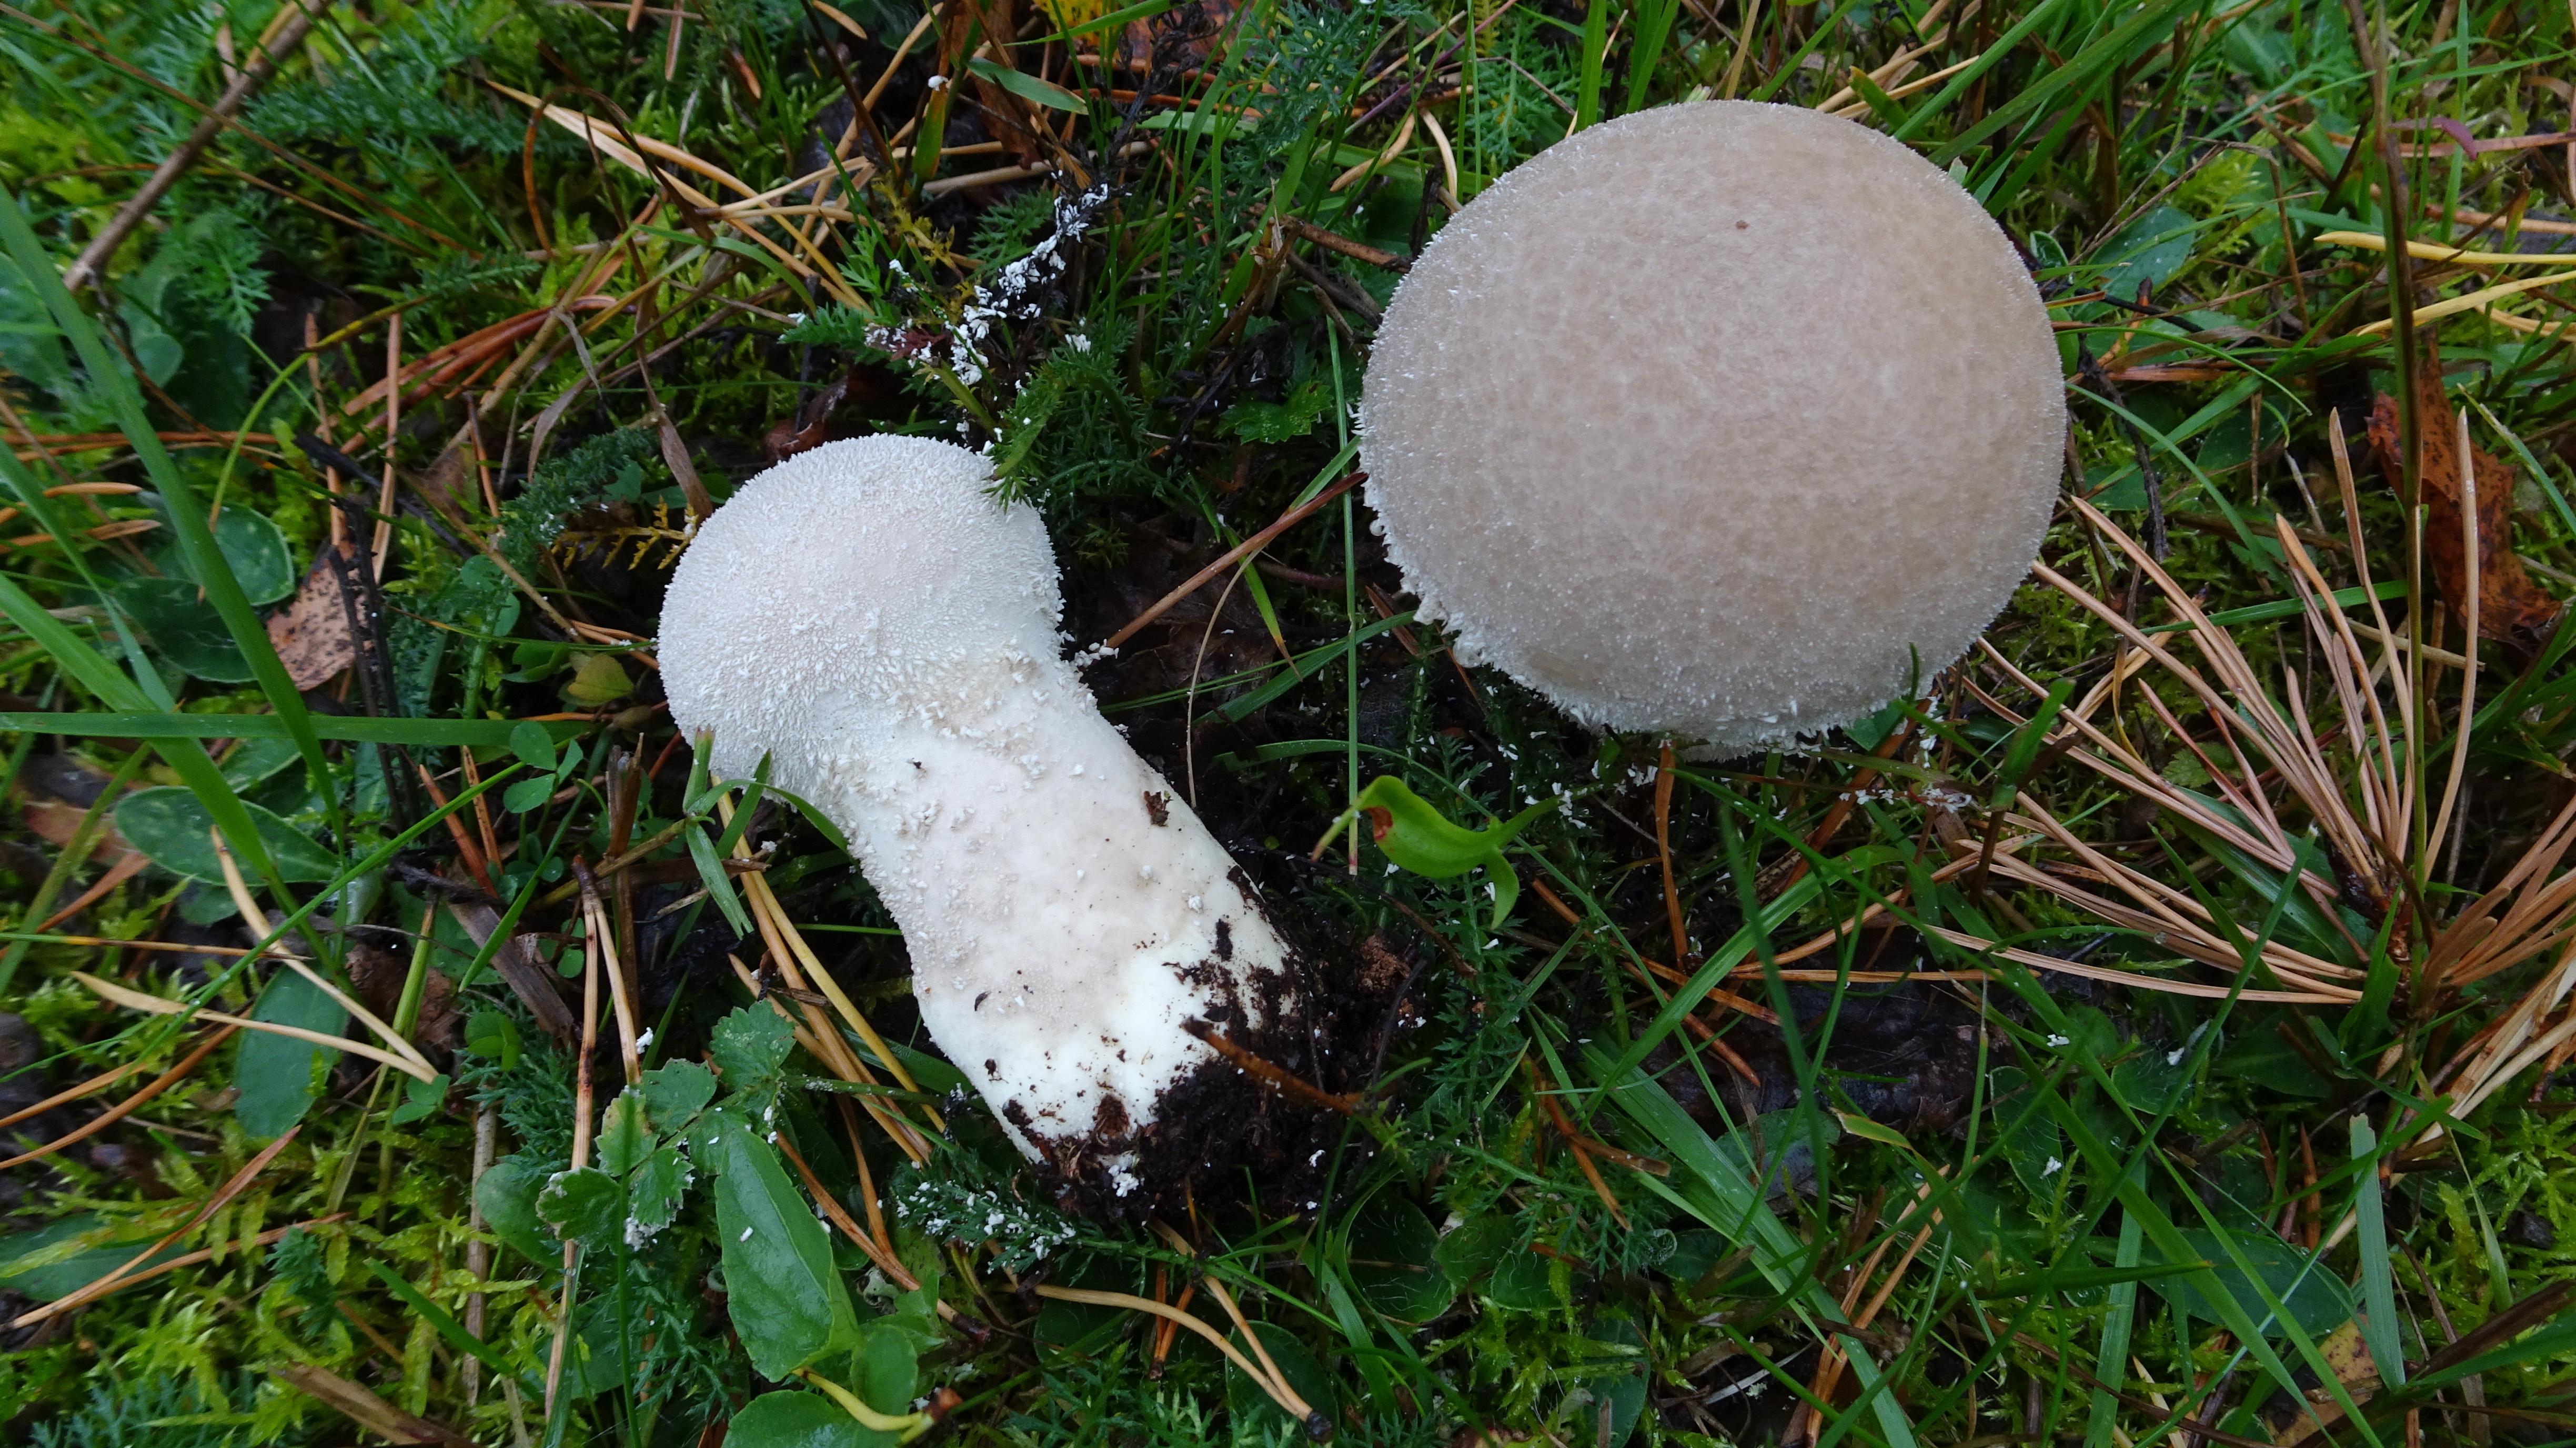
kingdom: Fungi
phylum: Basidiomycota
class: Agaricomycetes
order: Agaricales
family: Agaricaceae
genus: Lycoperdon
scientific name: Lycoperdon excipuliforme
